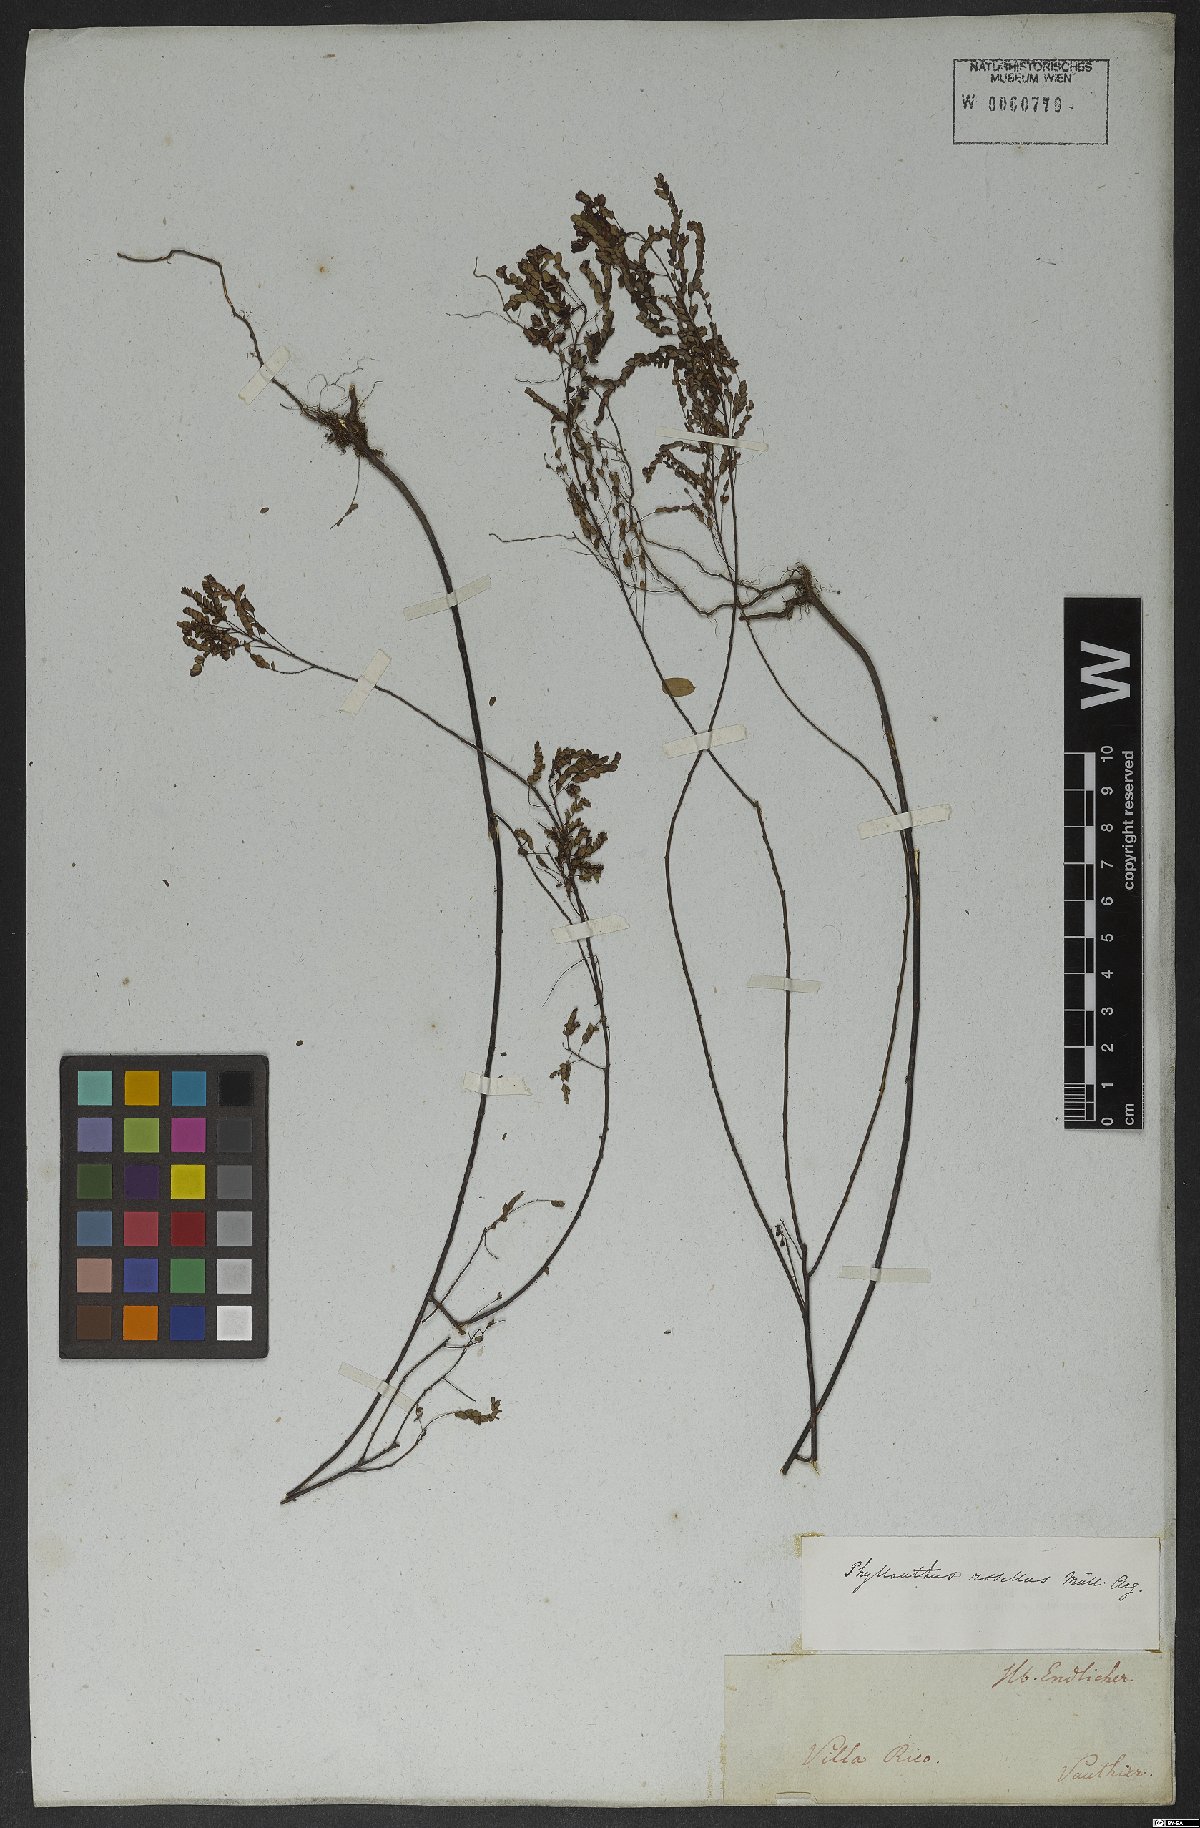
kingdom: Plantae
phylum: Tracheophyta
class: Magnoliopsida
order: Malpighiales
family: Phyllanthaceae
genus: Phyllanthus
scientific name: Phyllanthus niruri
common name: Niruri
